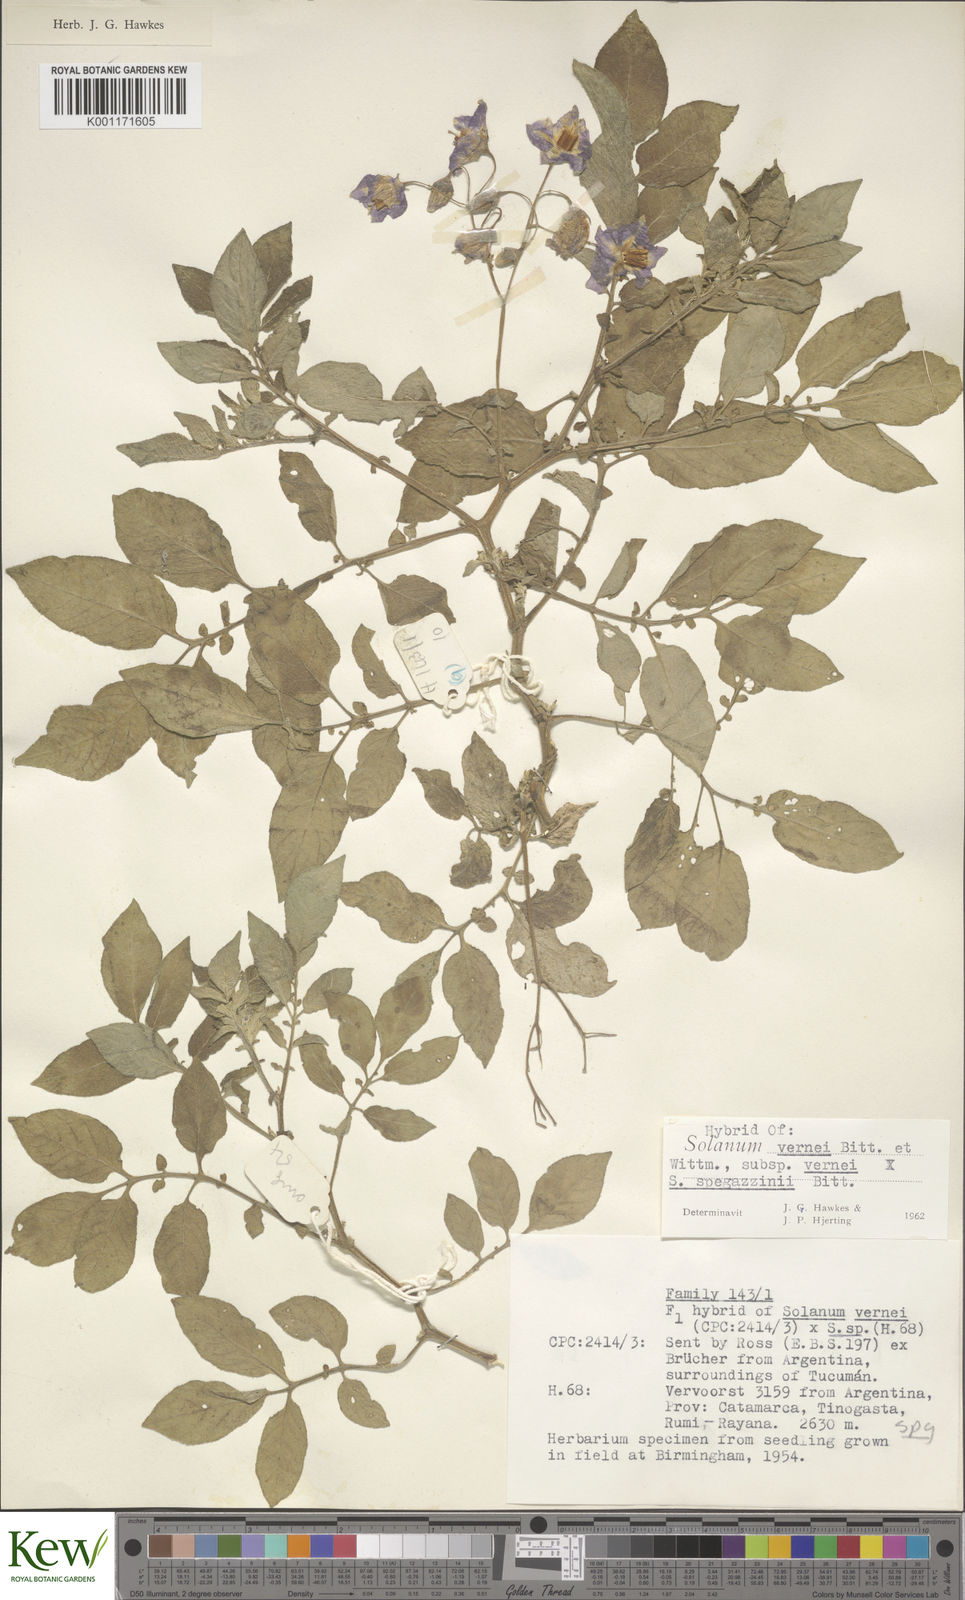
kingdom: Plantae
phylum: Tracheophyta
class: Magnoliopsida
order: Solanales
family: Solanaceae
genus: Solanum
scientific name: Solanum vernei
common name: Purple potato
